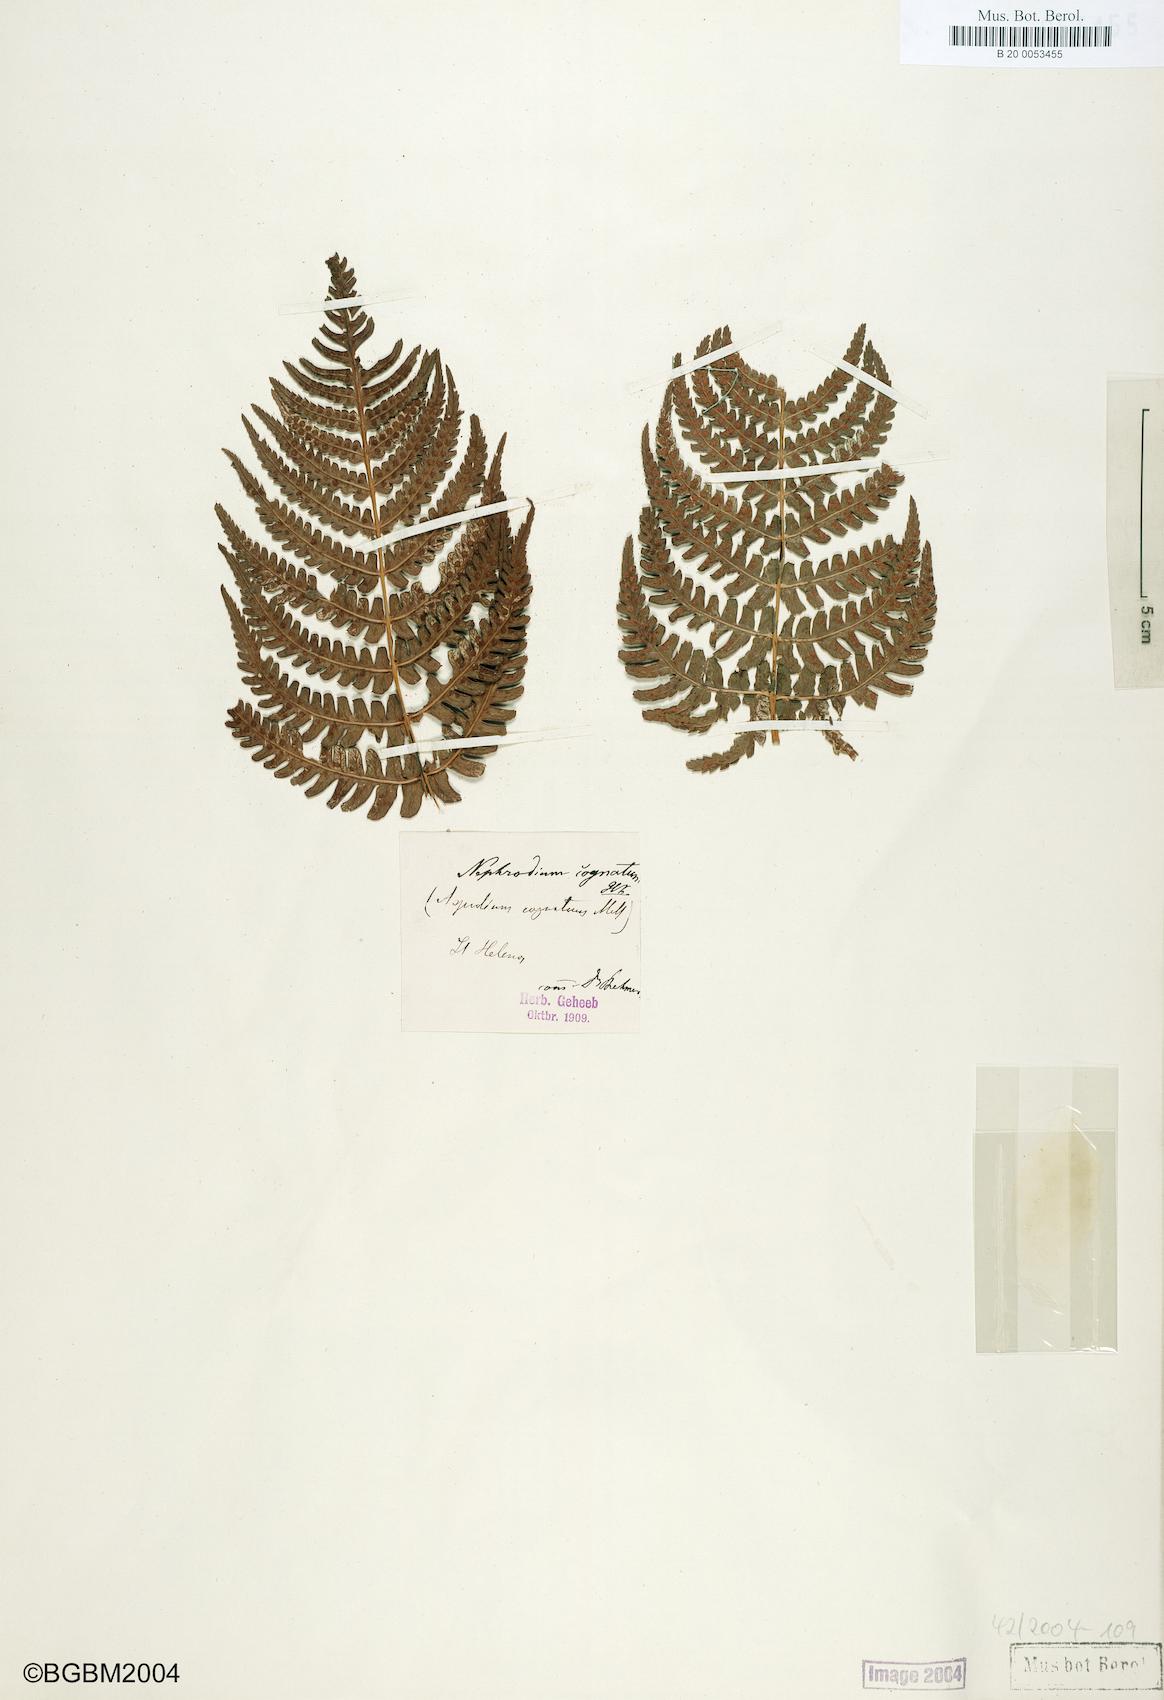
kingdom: Plantae
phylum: Tracheophyta
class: Polypodiopsida
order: Polypodiales
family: Dryopteridaceae
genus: Dryopteris
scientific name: Dryopteris cognata
